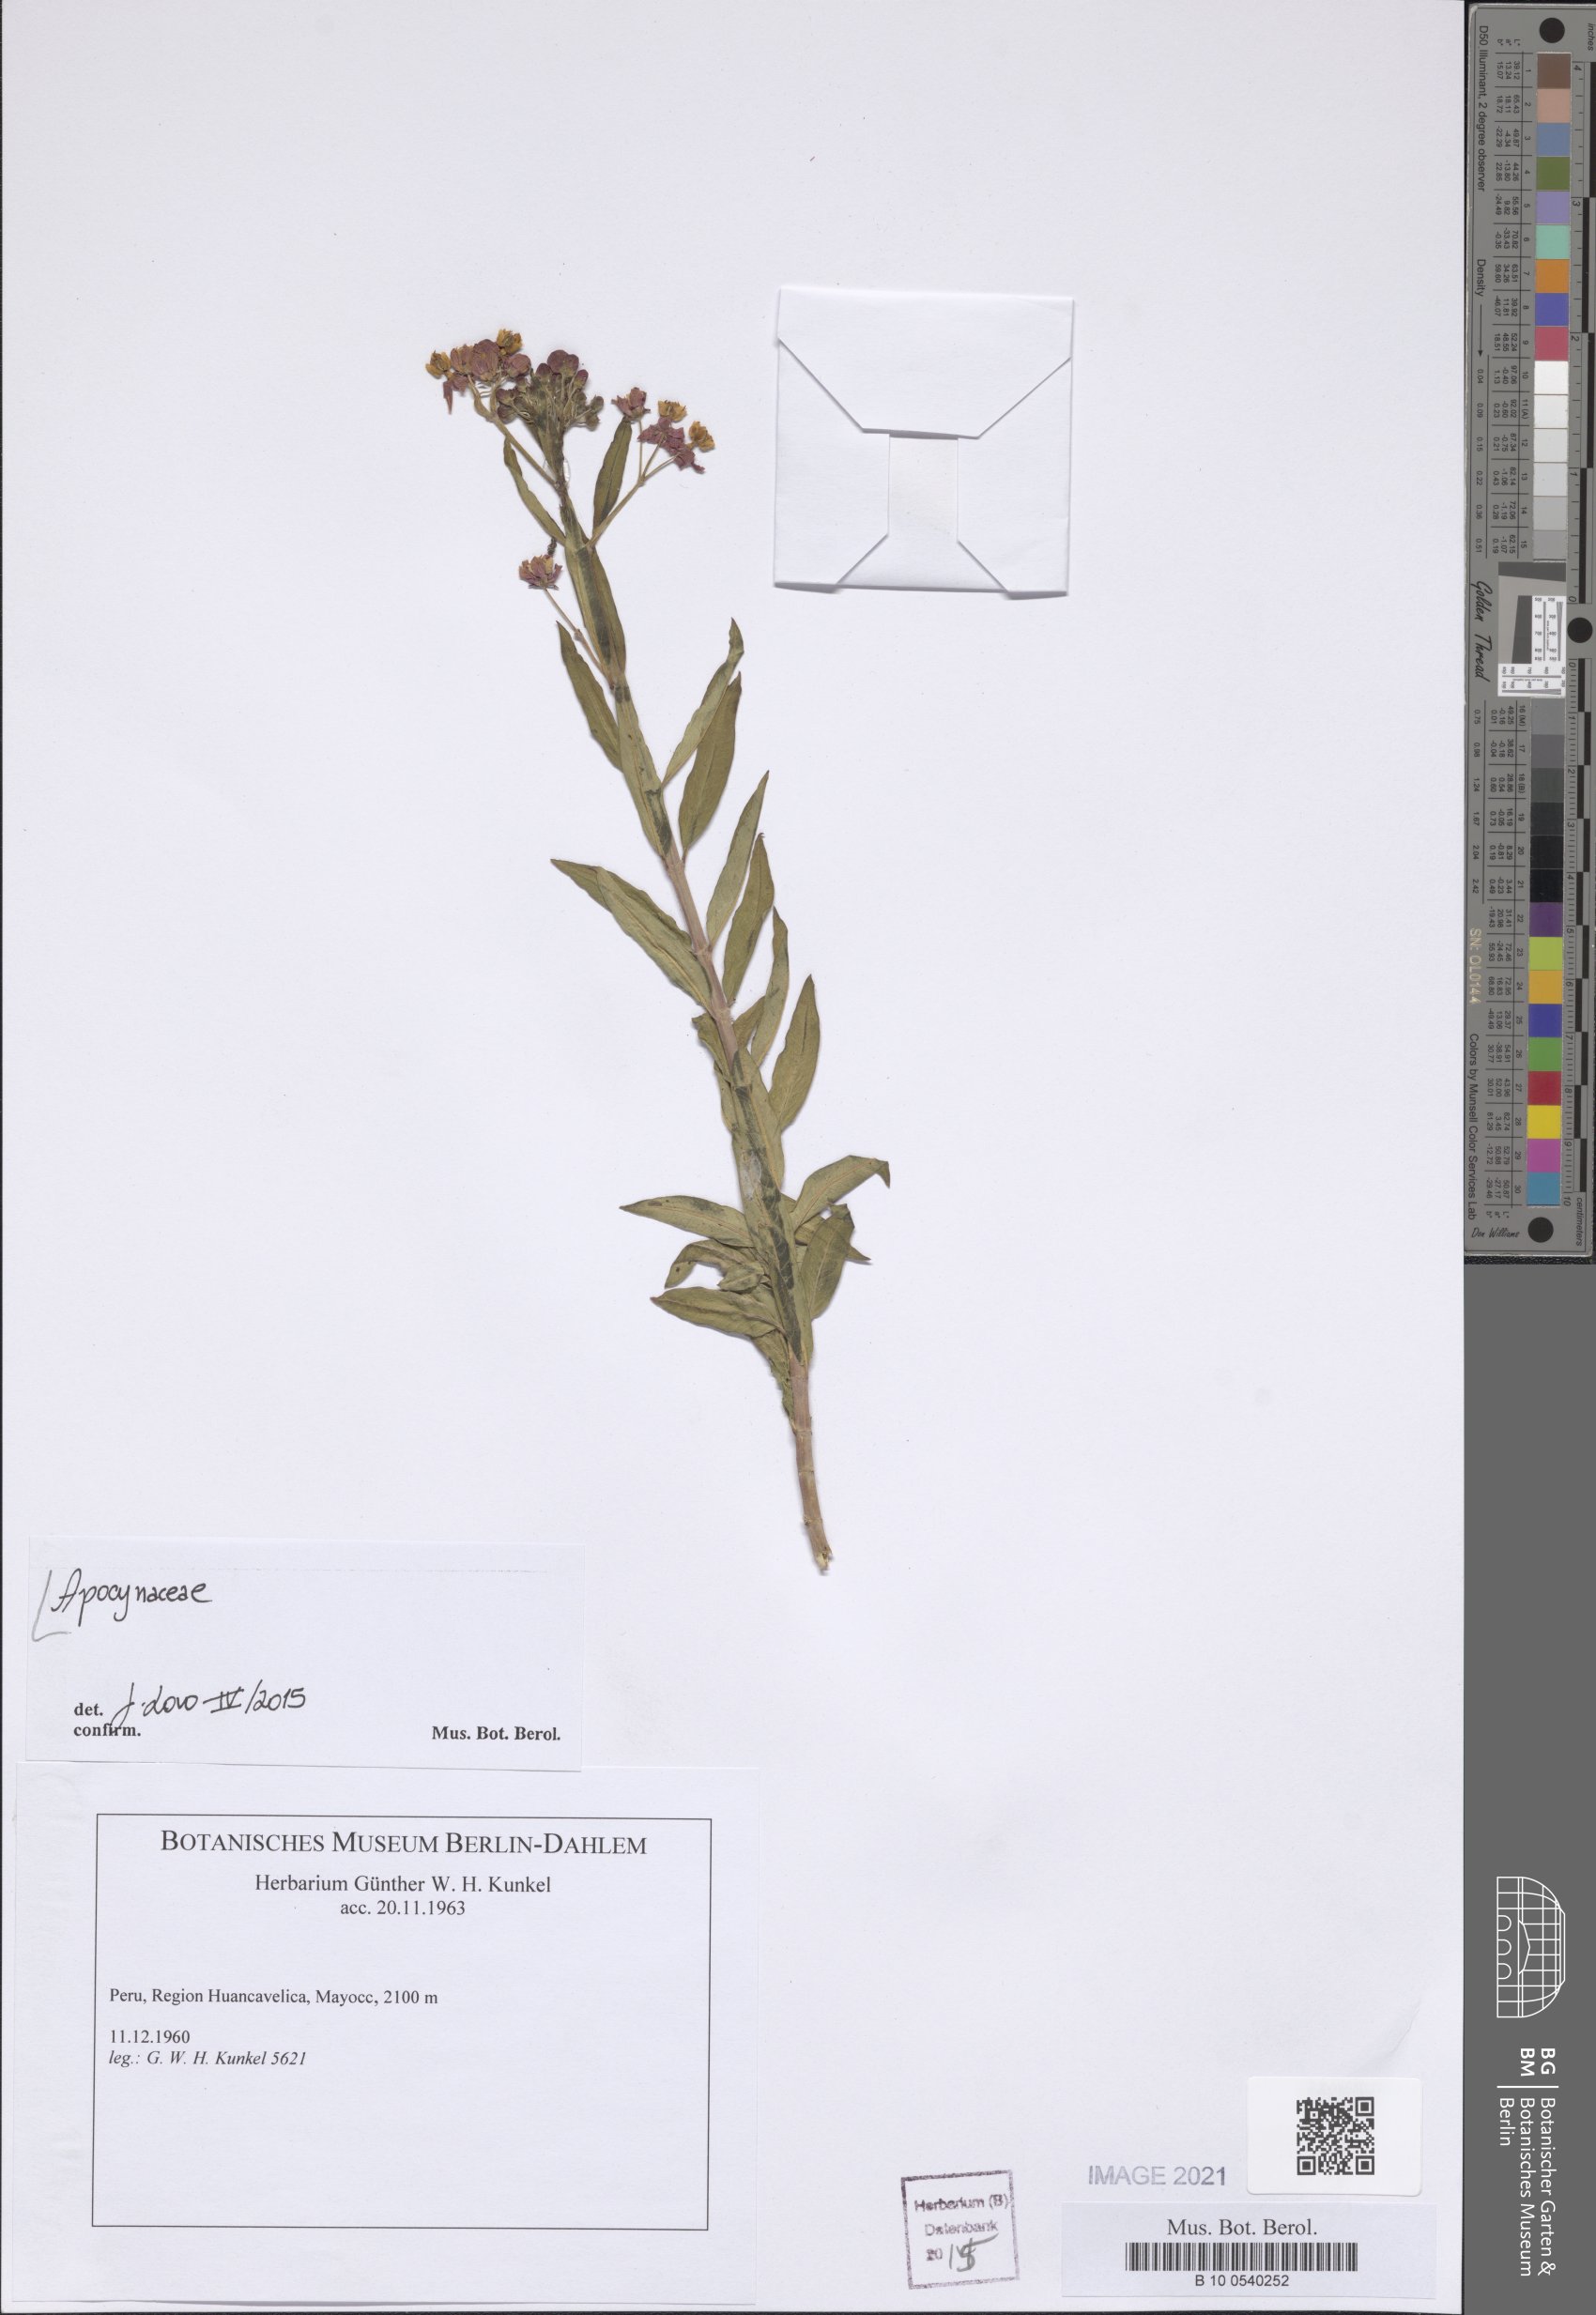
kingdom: Plantae
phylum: Tracheophyta
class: Magnoliopsida
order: Gentianales
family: Apocynaceae
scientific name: Apocynaceae
